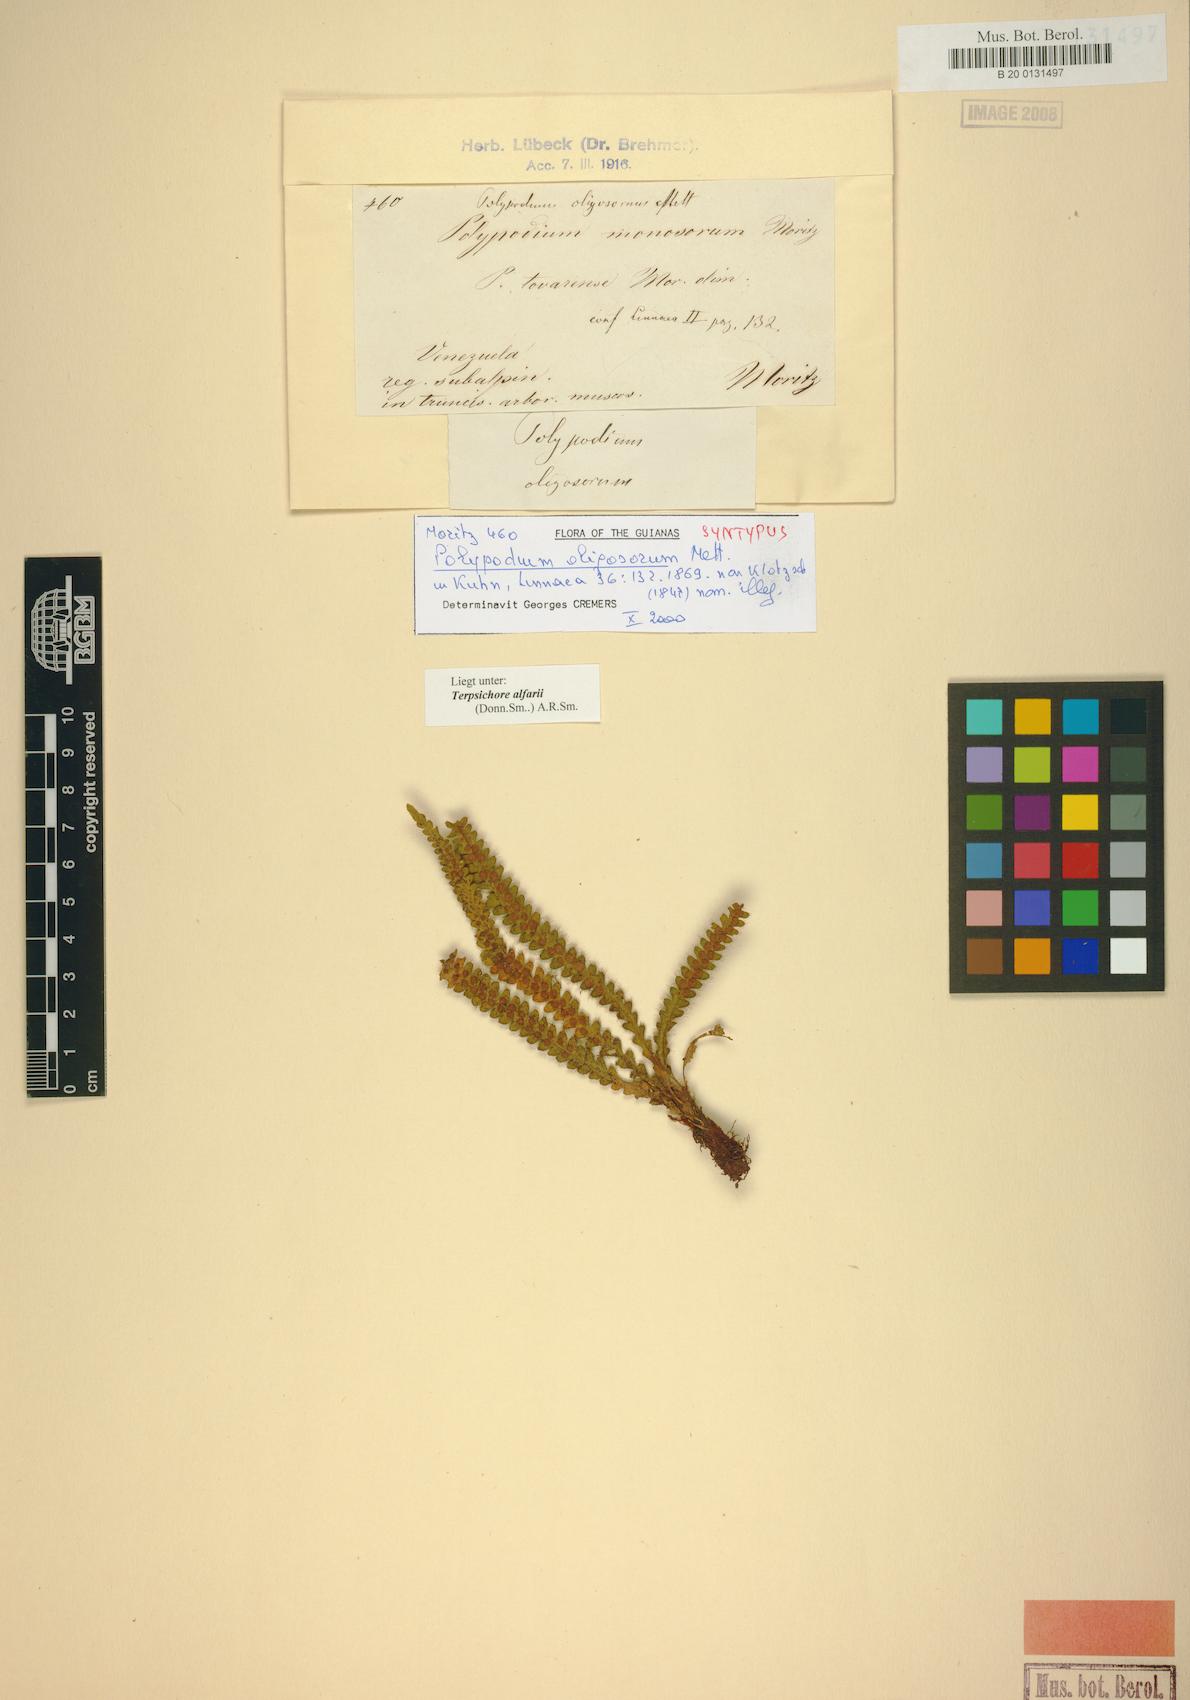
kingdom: Plantae
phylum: Tracheophyta
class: Polypodiopsida
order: Polypodiales
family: Polypodiaceae
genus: Terpsichore
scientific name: Terpsichore alfaroi
